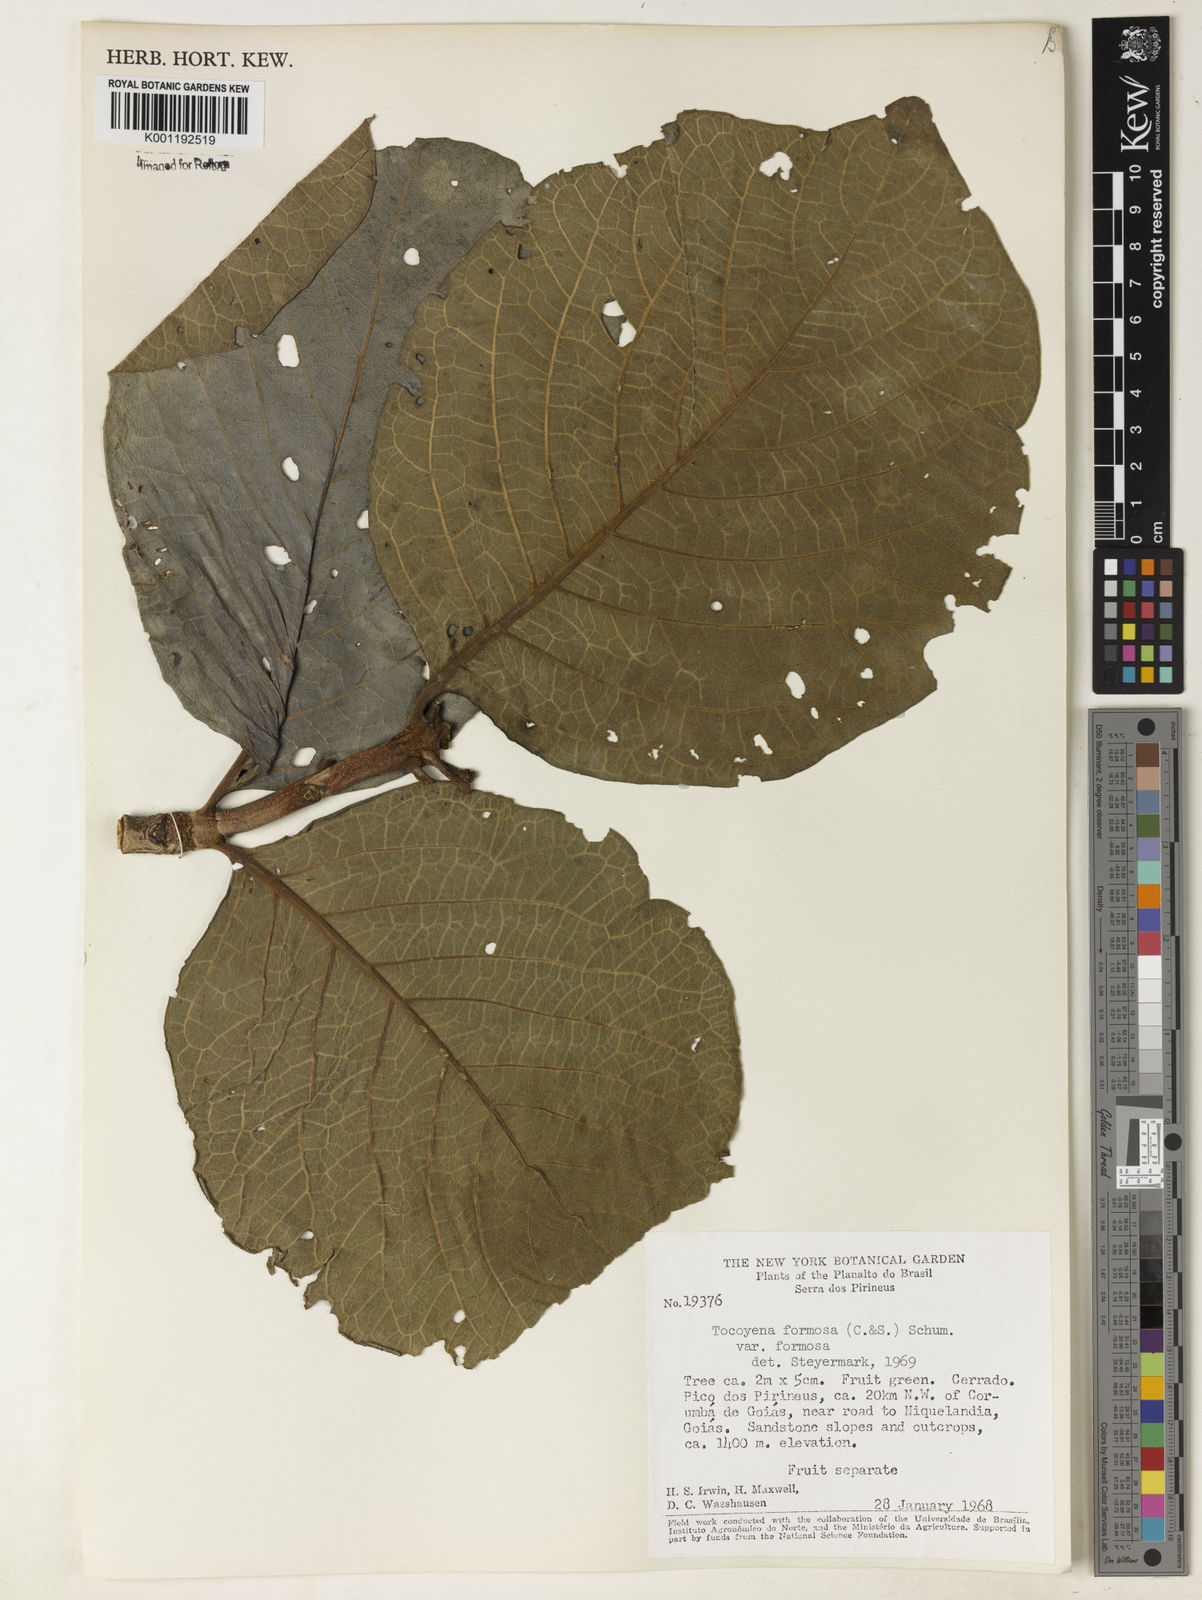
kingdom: Plantae
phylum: Tracheophyta
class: Magnoliopsida
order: Gentianales
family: Rubiaceae
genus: Tocoyena
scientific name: Tocoyena formosa
